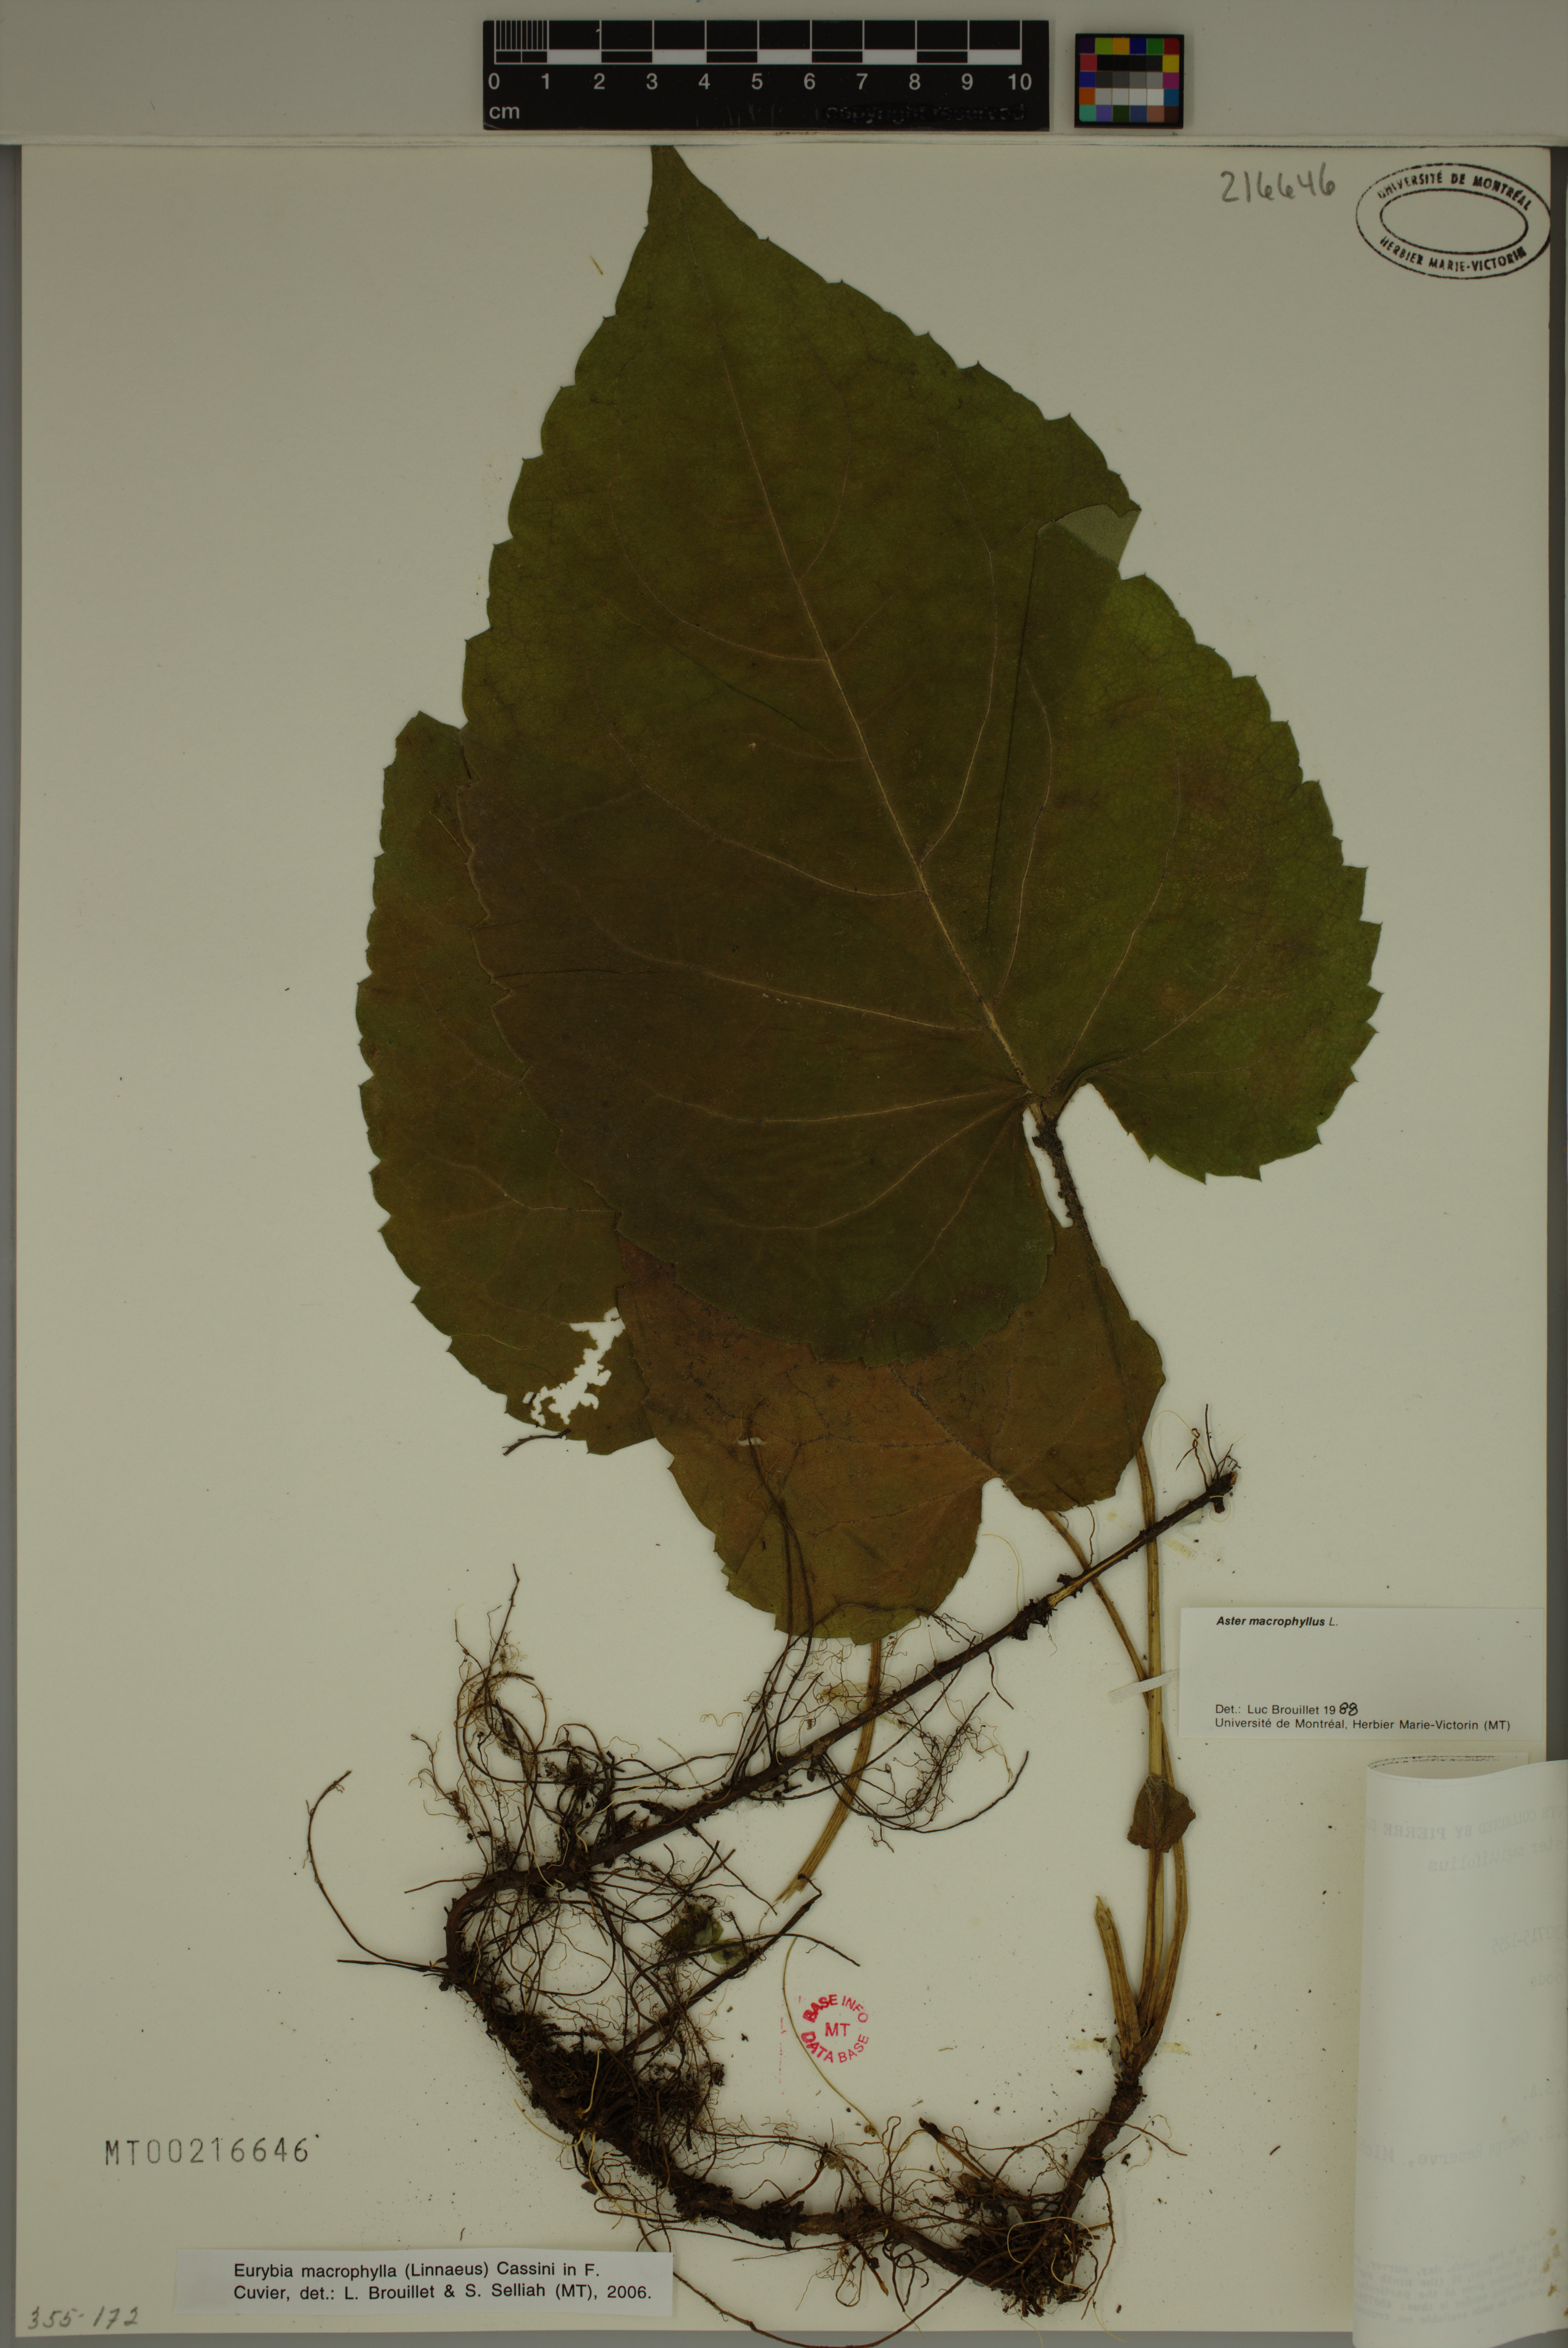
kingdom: Plantae
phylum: Tracheophyta
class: Magnoliopsida
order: Asterales
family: Asteraceae
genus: Eurybia
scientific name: Eurybia macrophylla
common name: Big-leaved aster
